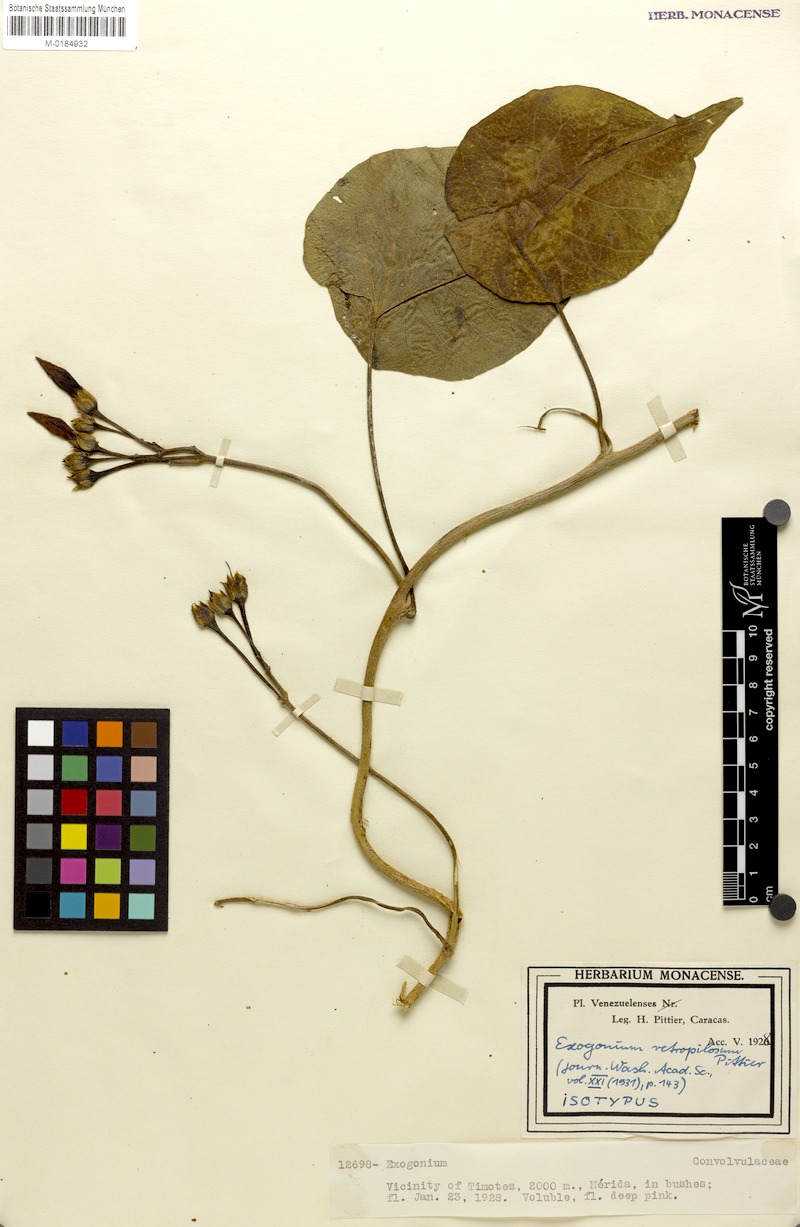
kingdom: Plantae
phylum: Tracheophyta
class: Magnoliopsida
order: Solanales
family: Convolvulaceae
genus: Ipomoea
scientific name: Ipomoea retropilosa
